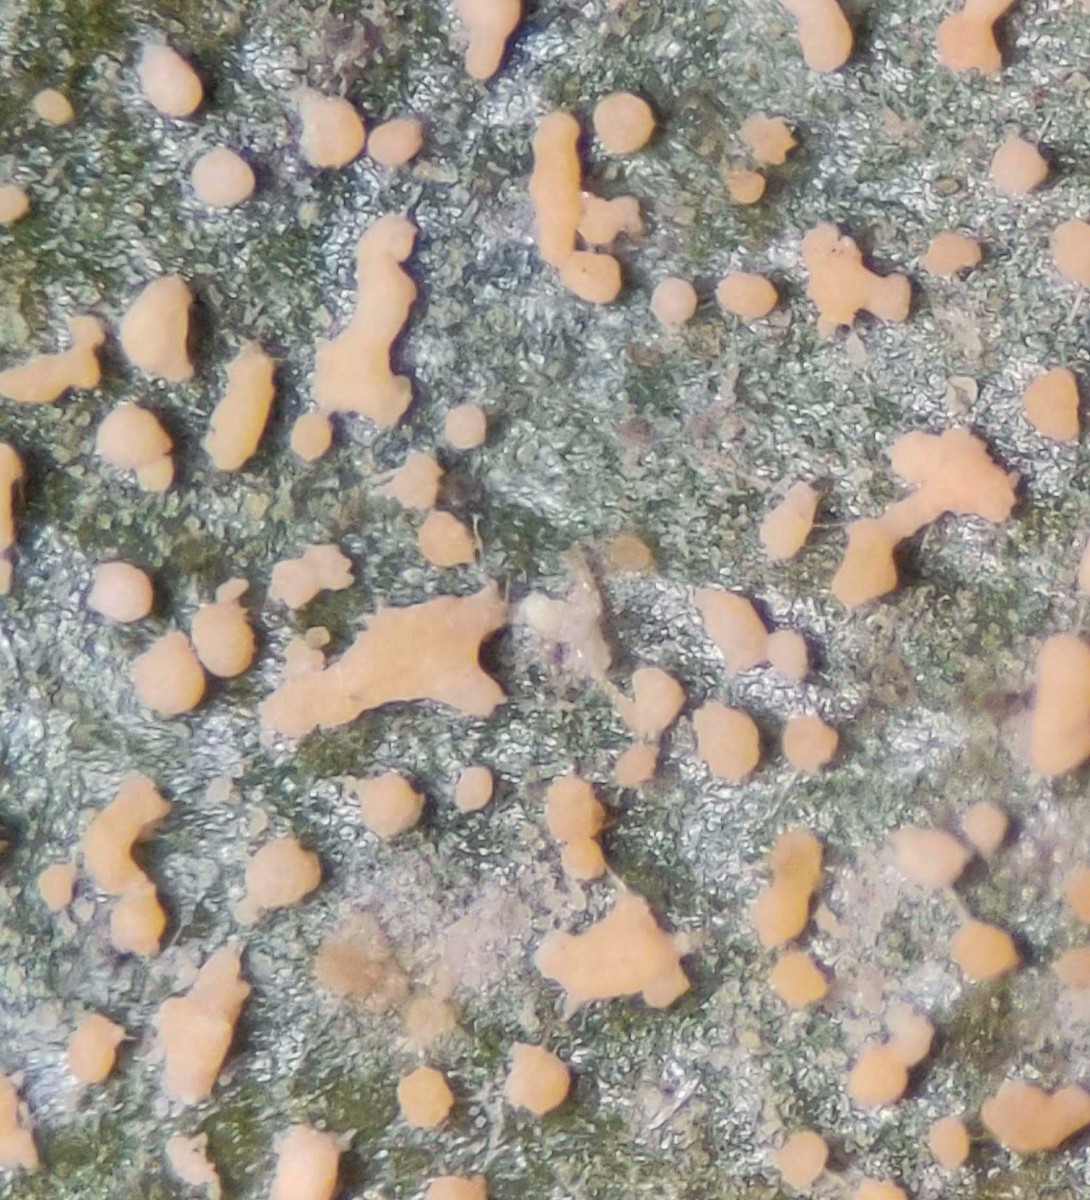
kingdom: Fungi
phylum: Ascomycota
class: Sordariomycetes
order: Hypocreales
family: Nectriaceae
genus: Pseudonectria
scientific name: Pseudonectria buxi
